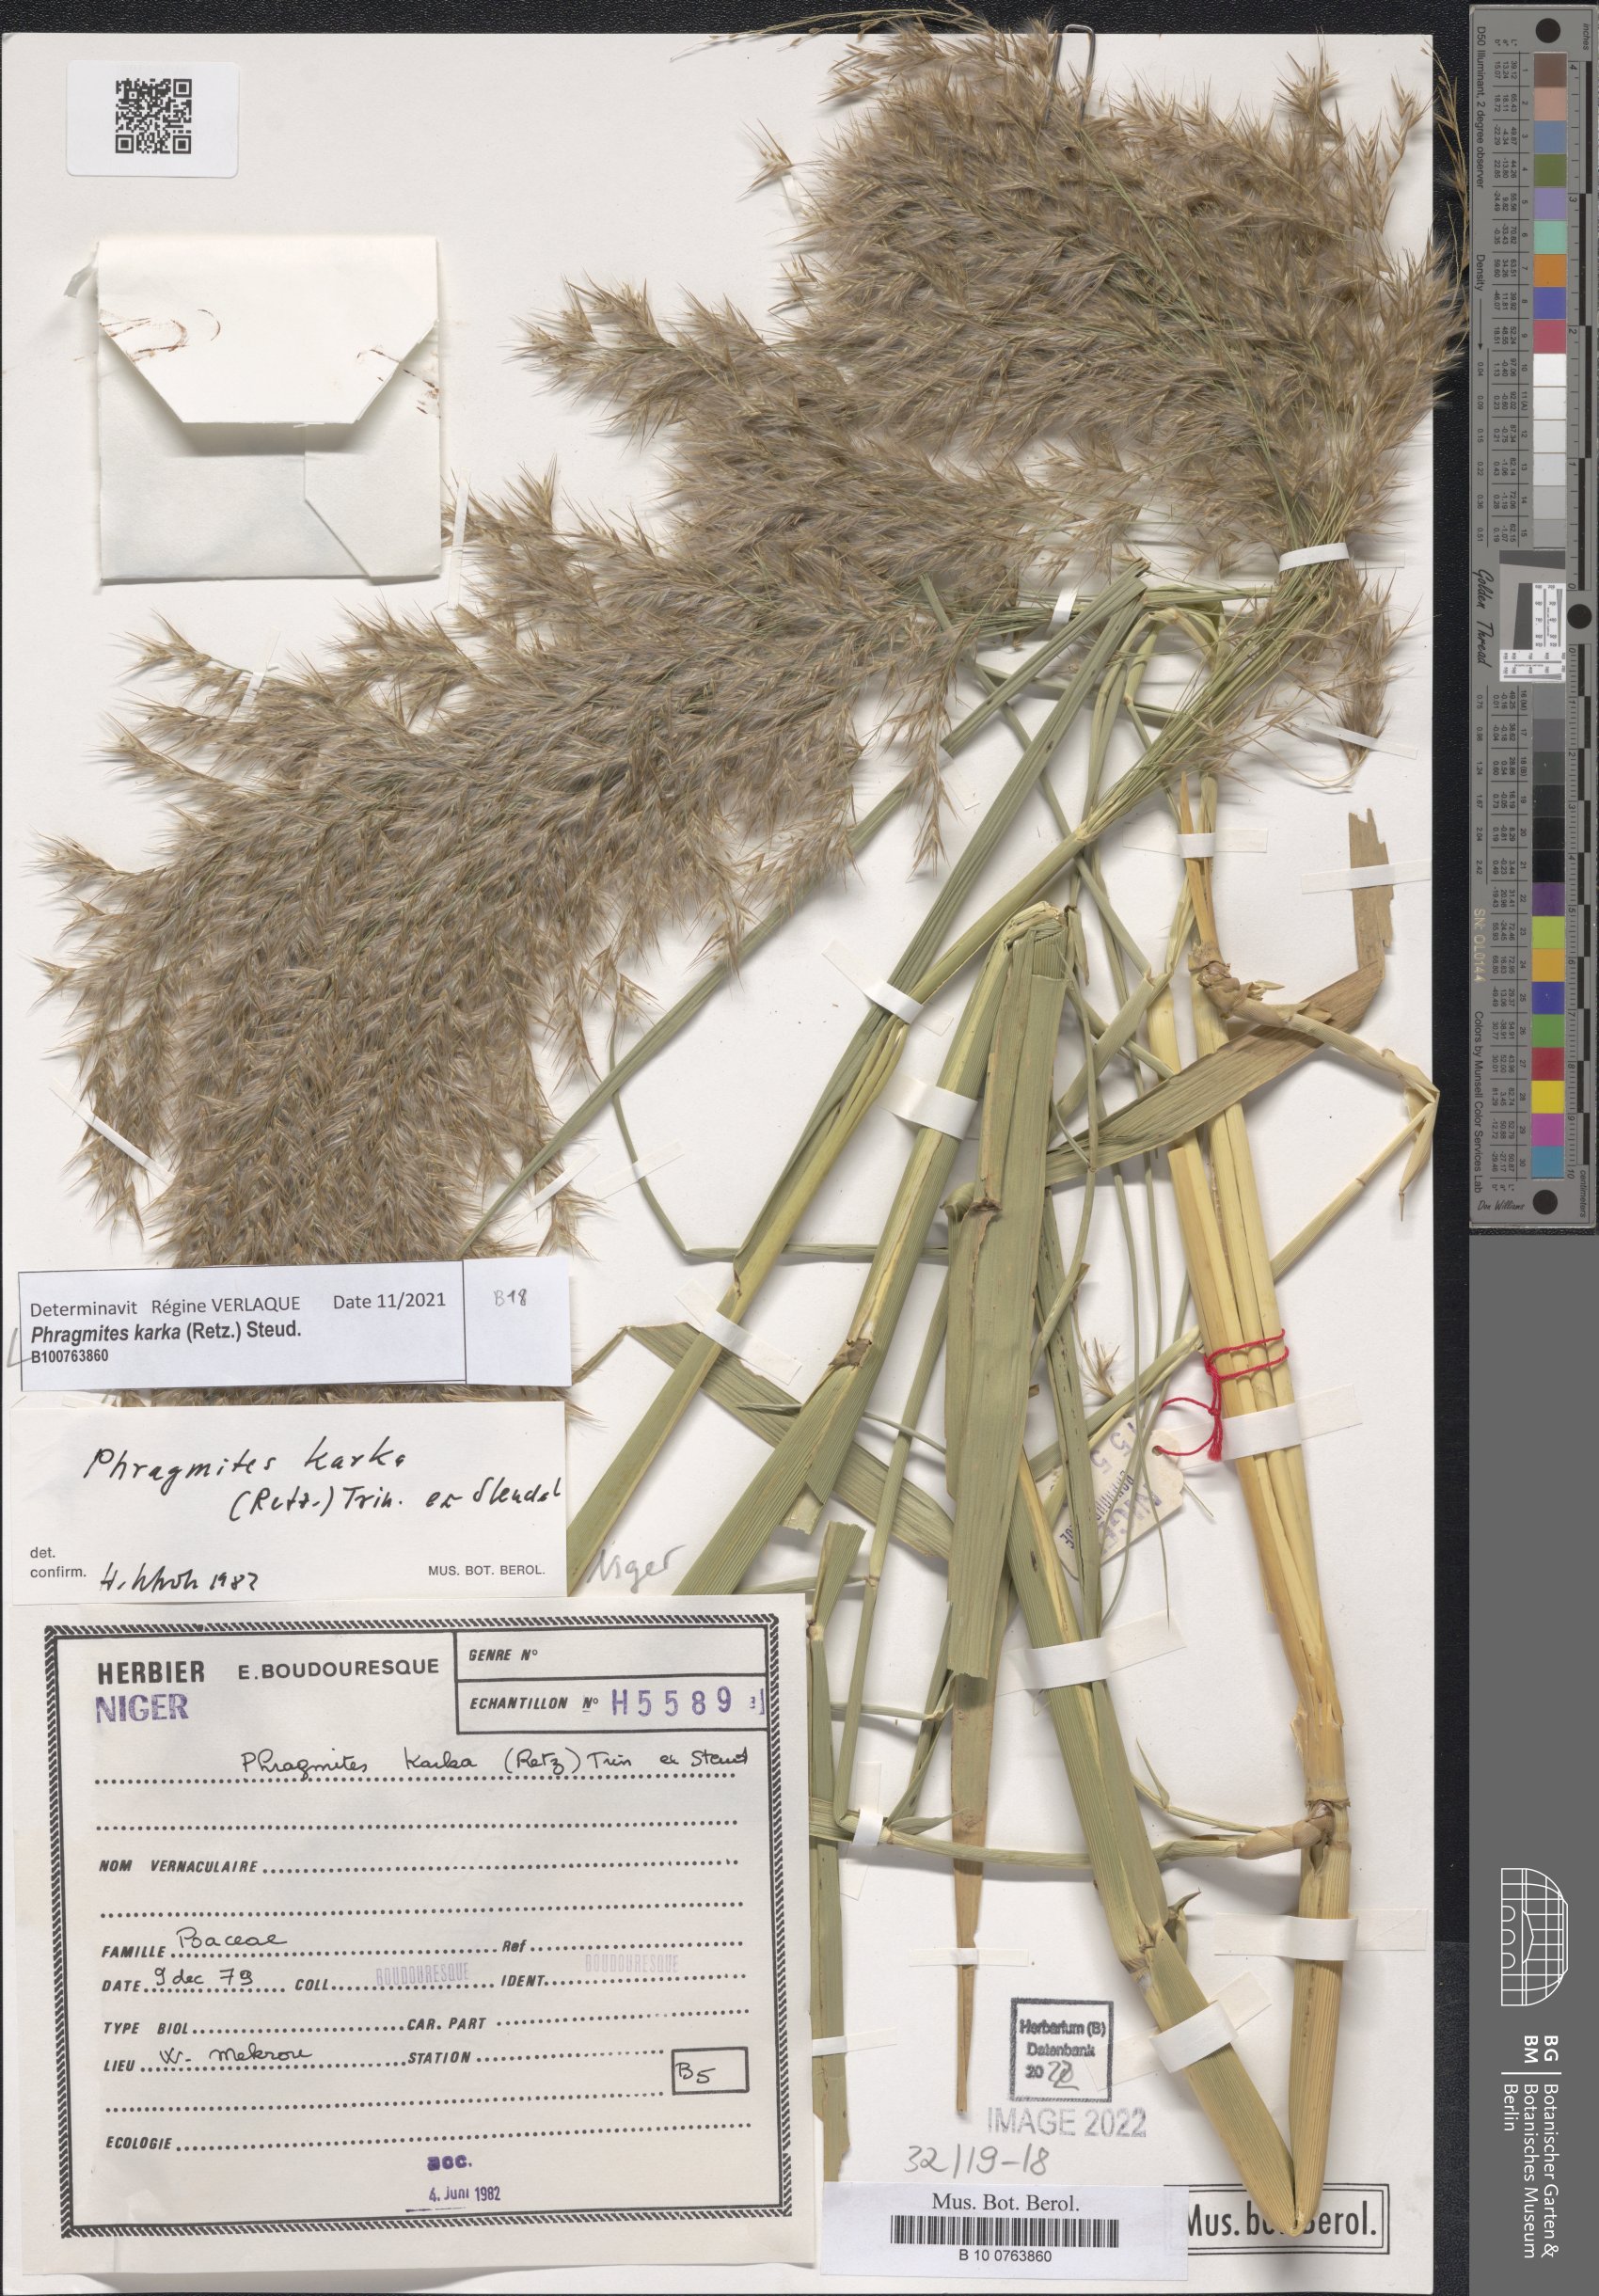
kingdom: Plantae
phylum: Tracheophyta
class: Liliopsida
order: Poales
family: Poaceae
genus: Phragmites
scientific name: Phragmites karka
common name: Tropical reed
